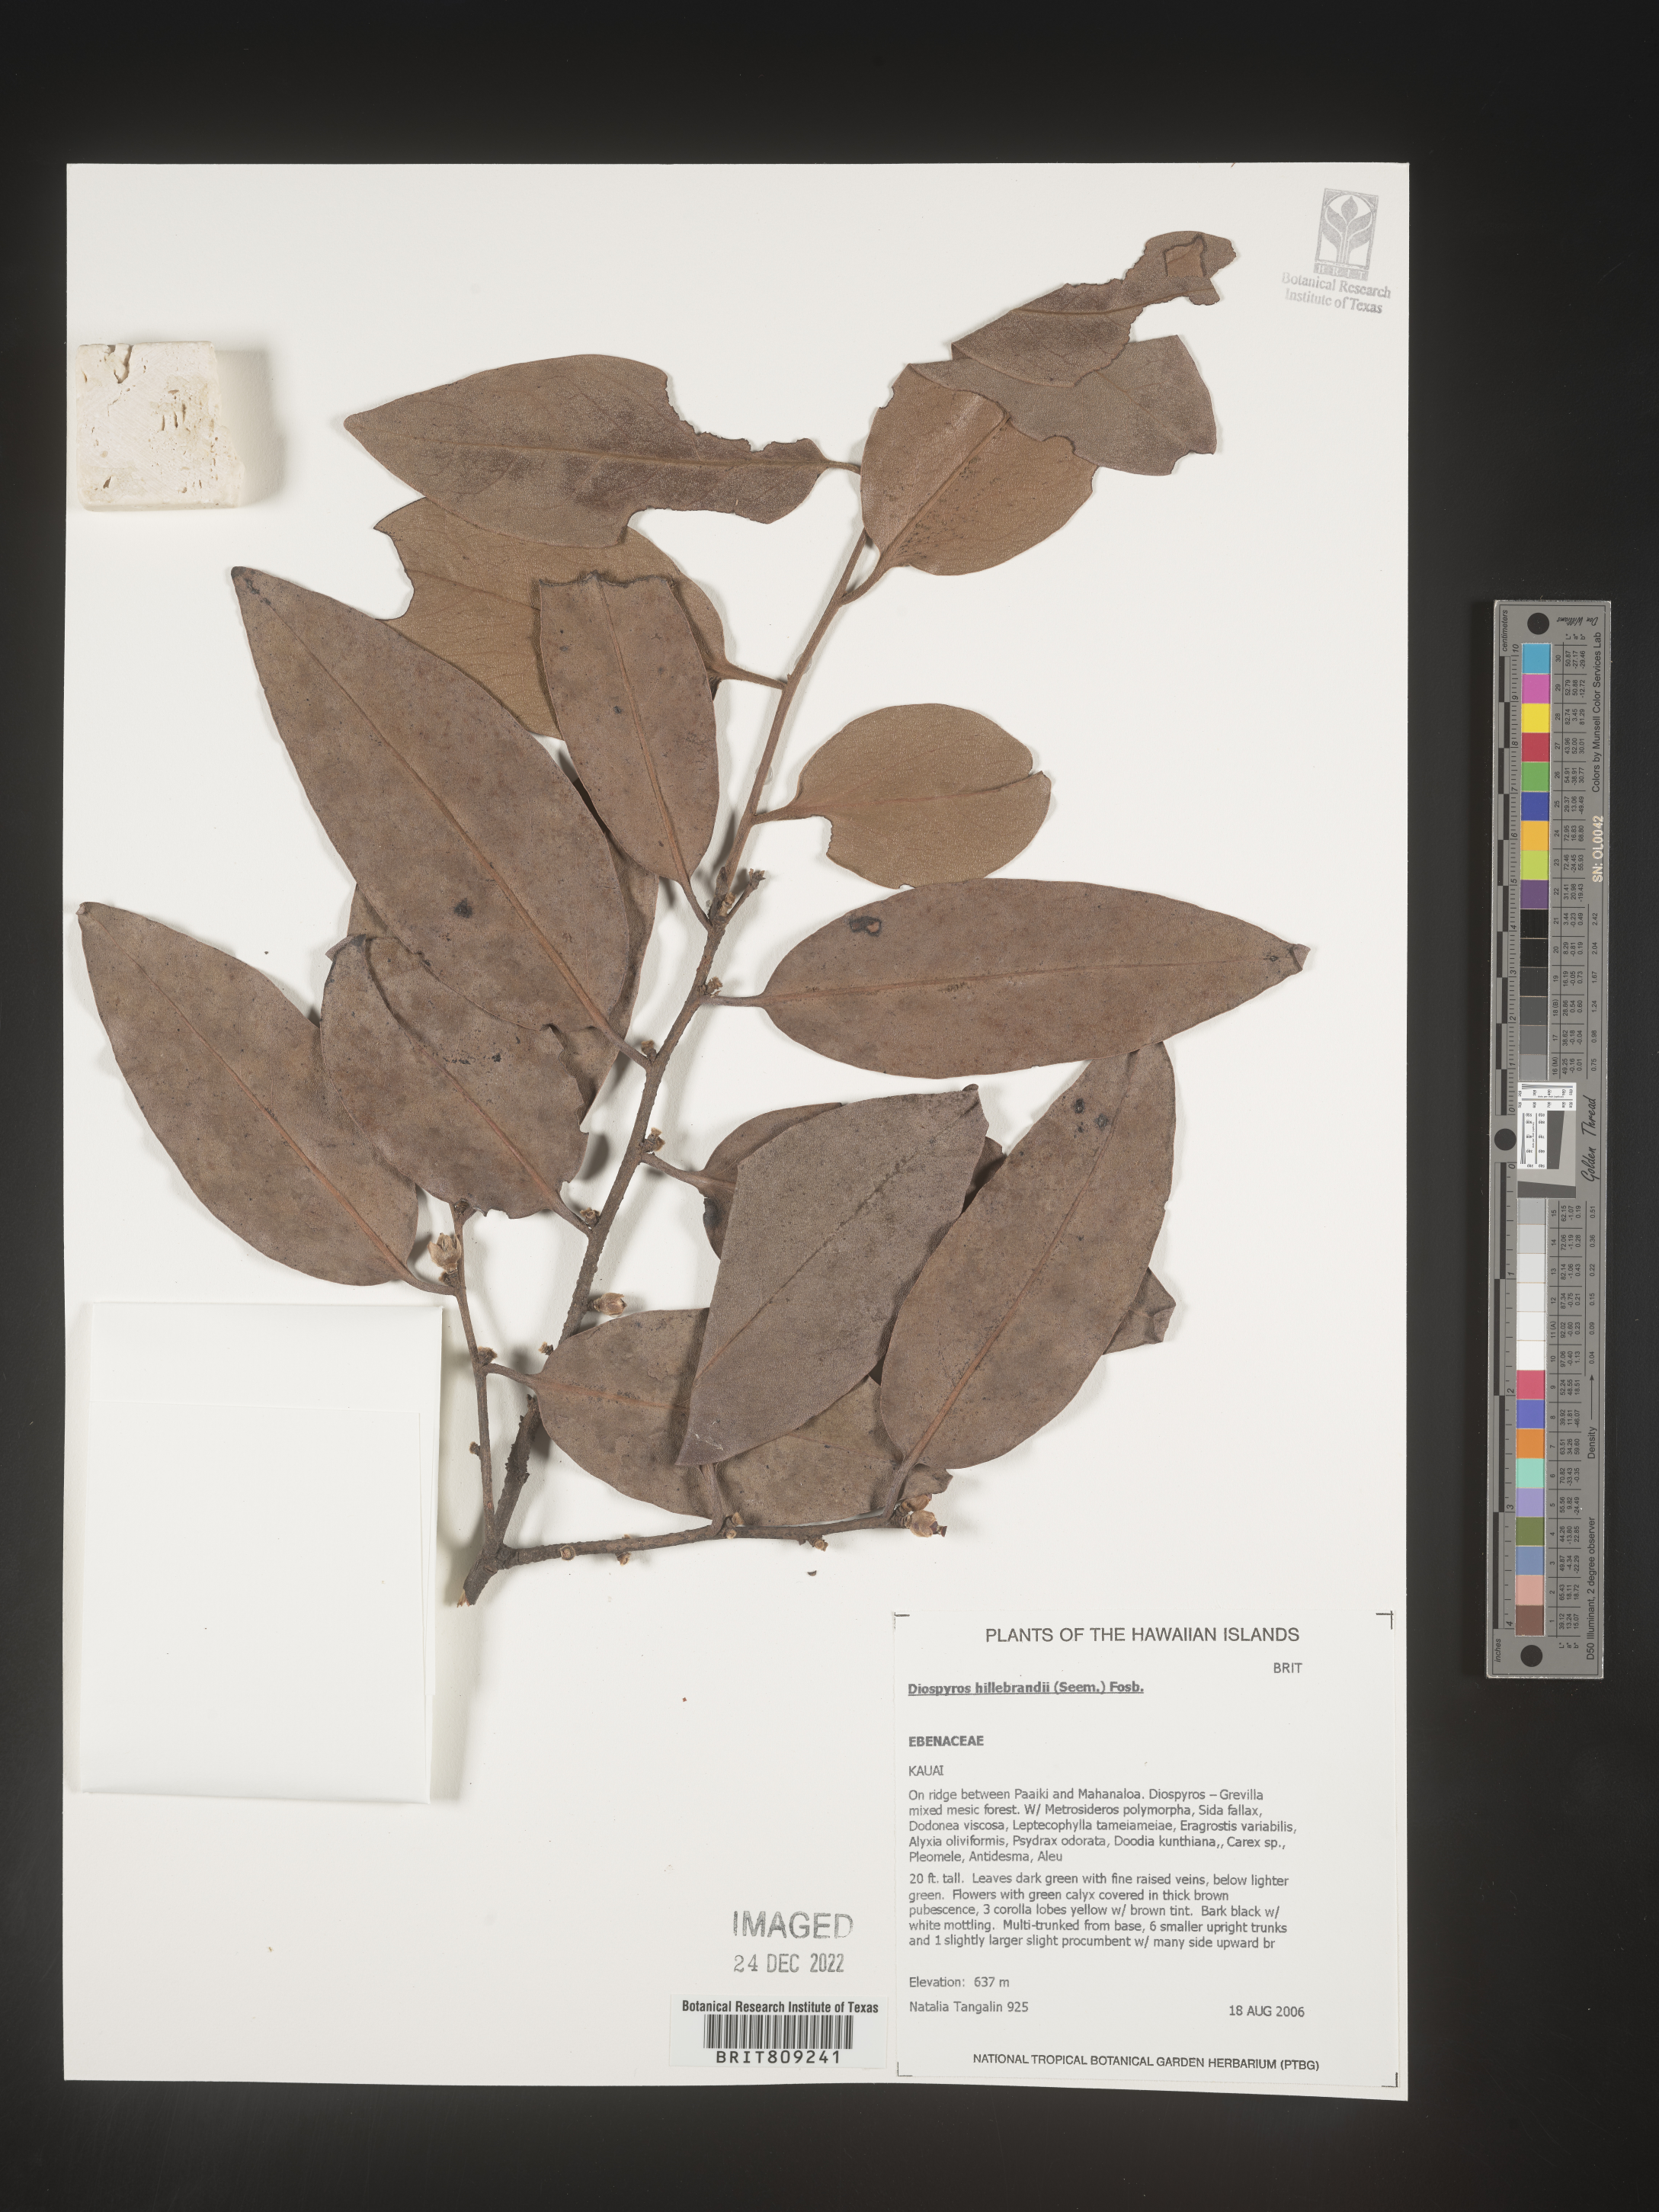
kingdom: Plantae
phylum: Tracheophyta
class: Magnoliopsida
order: Ericales
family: Ebenaceae
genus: Diospyros
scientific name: Diospyros
